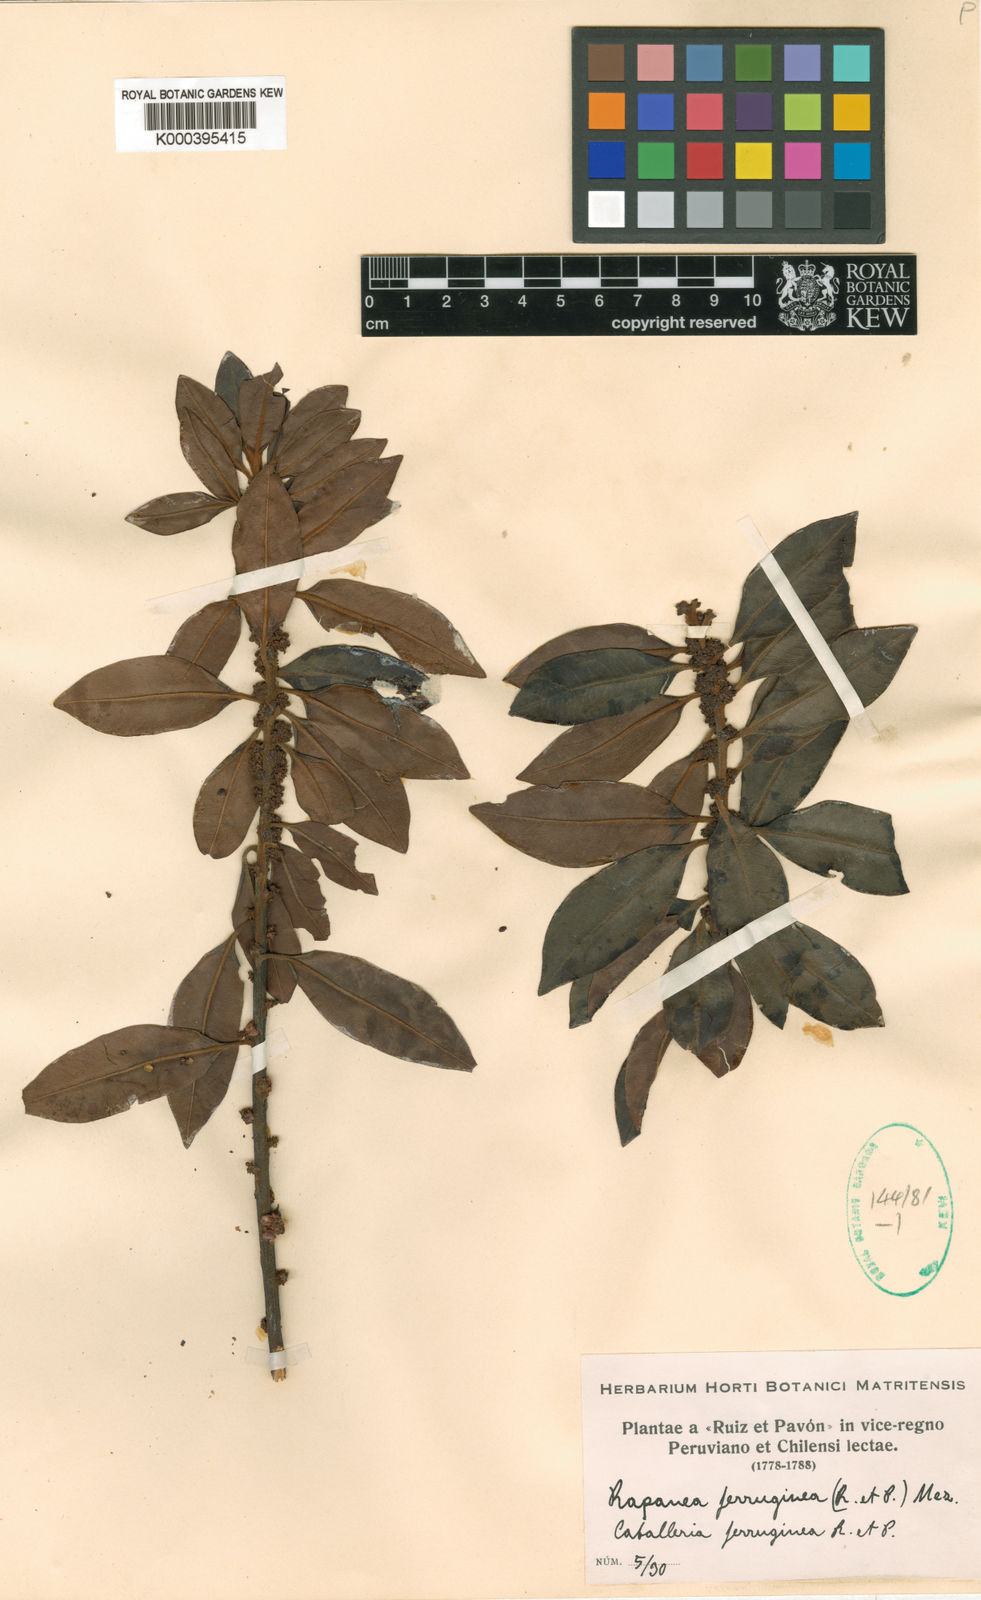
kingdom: Plantae
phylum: Tracheophyta
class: Magnoliopsida
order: Ericales
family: Primulaceae
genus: Myrsine
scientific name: Myrsine
